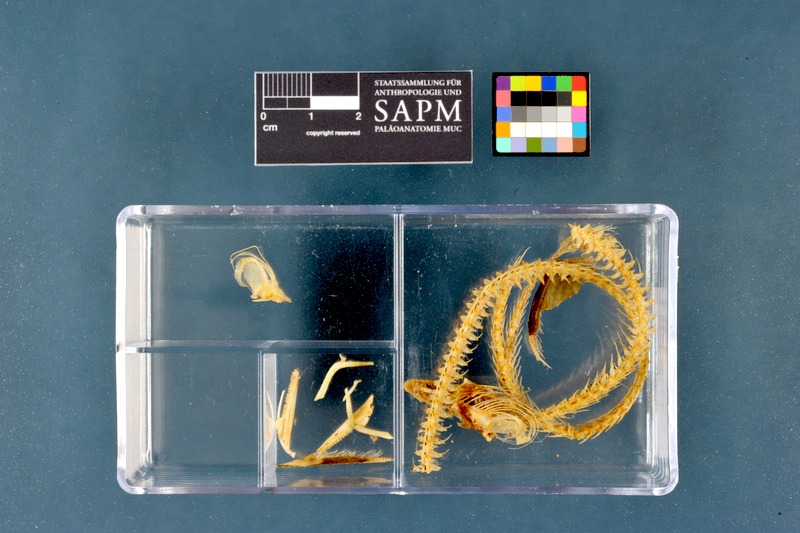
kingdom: Animalia
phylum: Chordata
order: Anguilliformes
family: Anguillidae
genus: Anguilla
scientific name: Anguilla anguilla
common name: European eel
